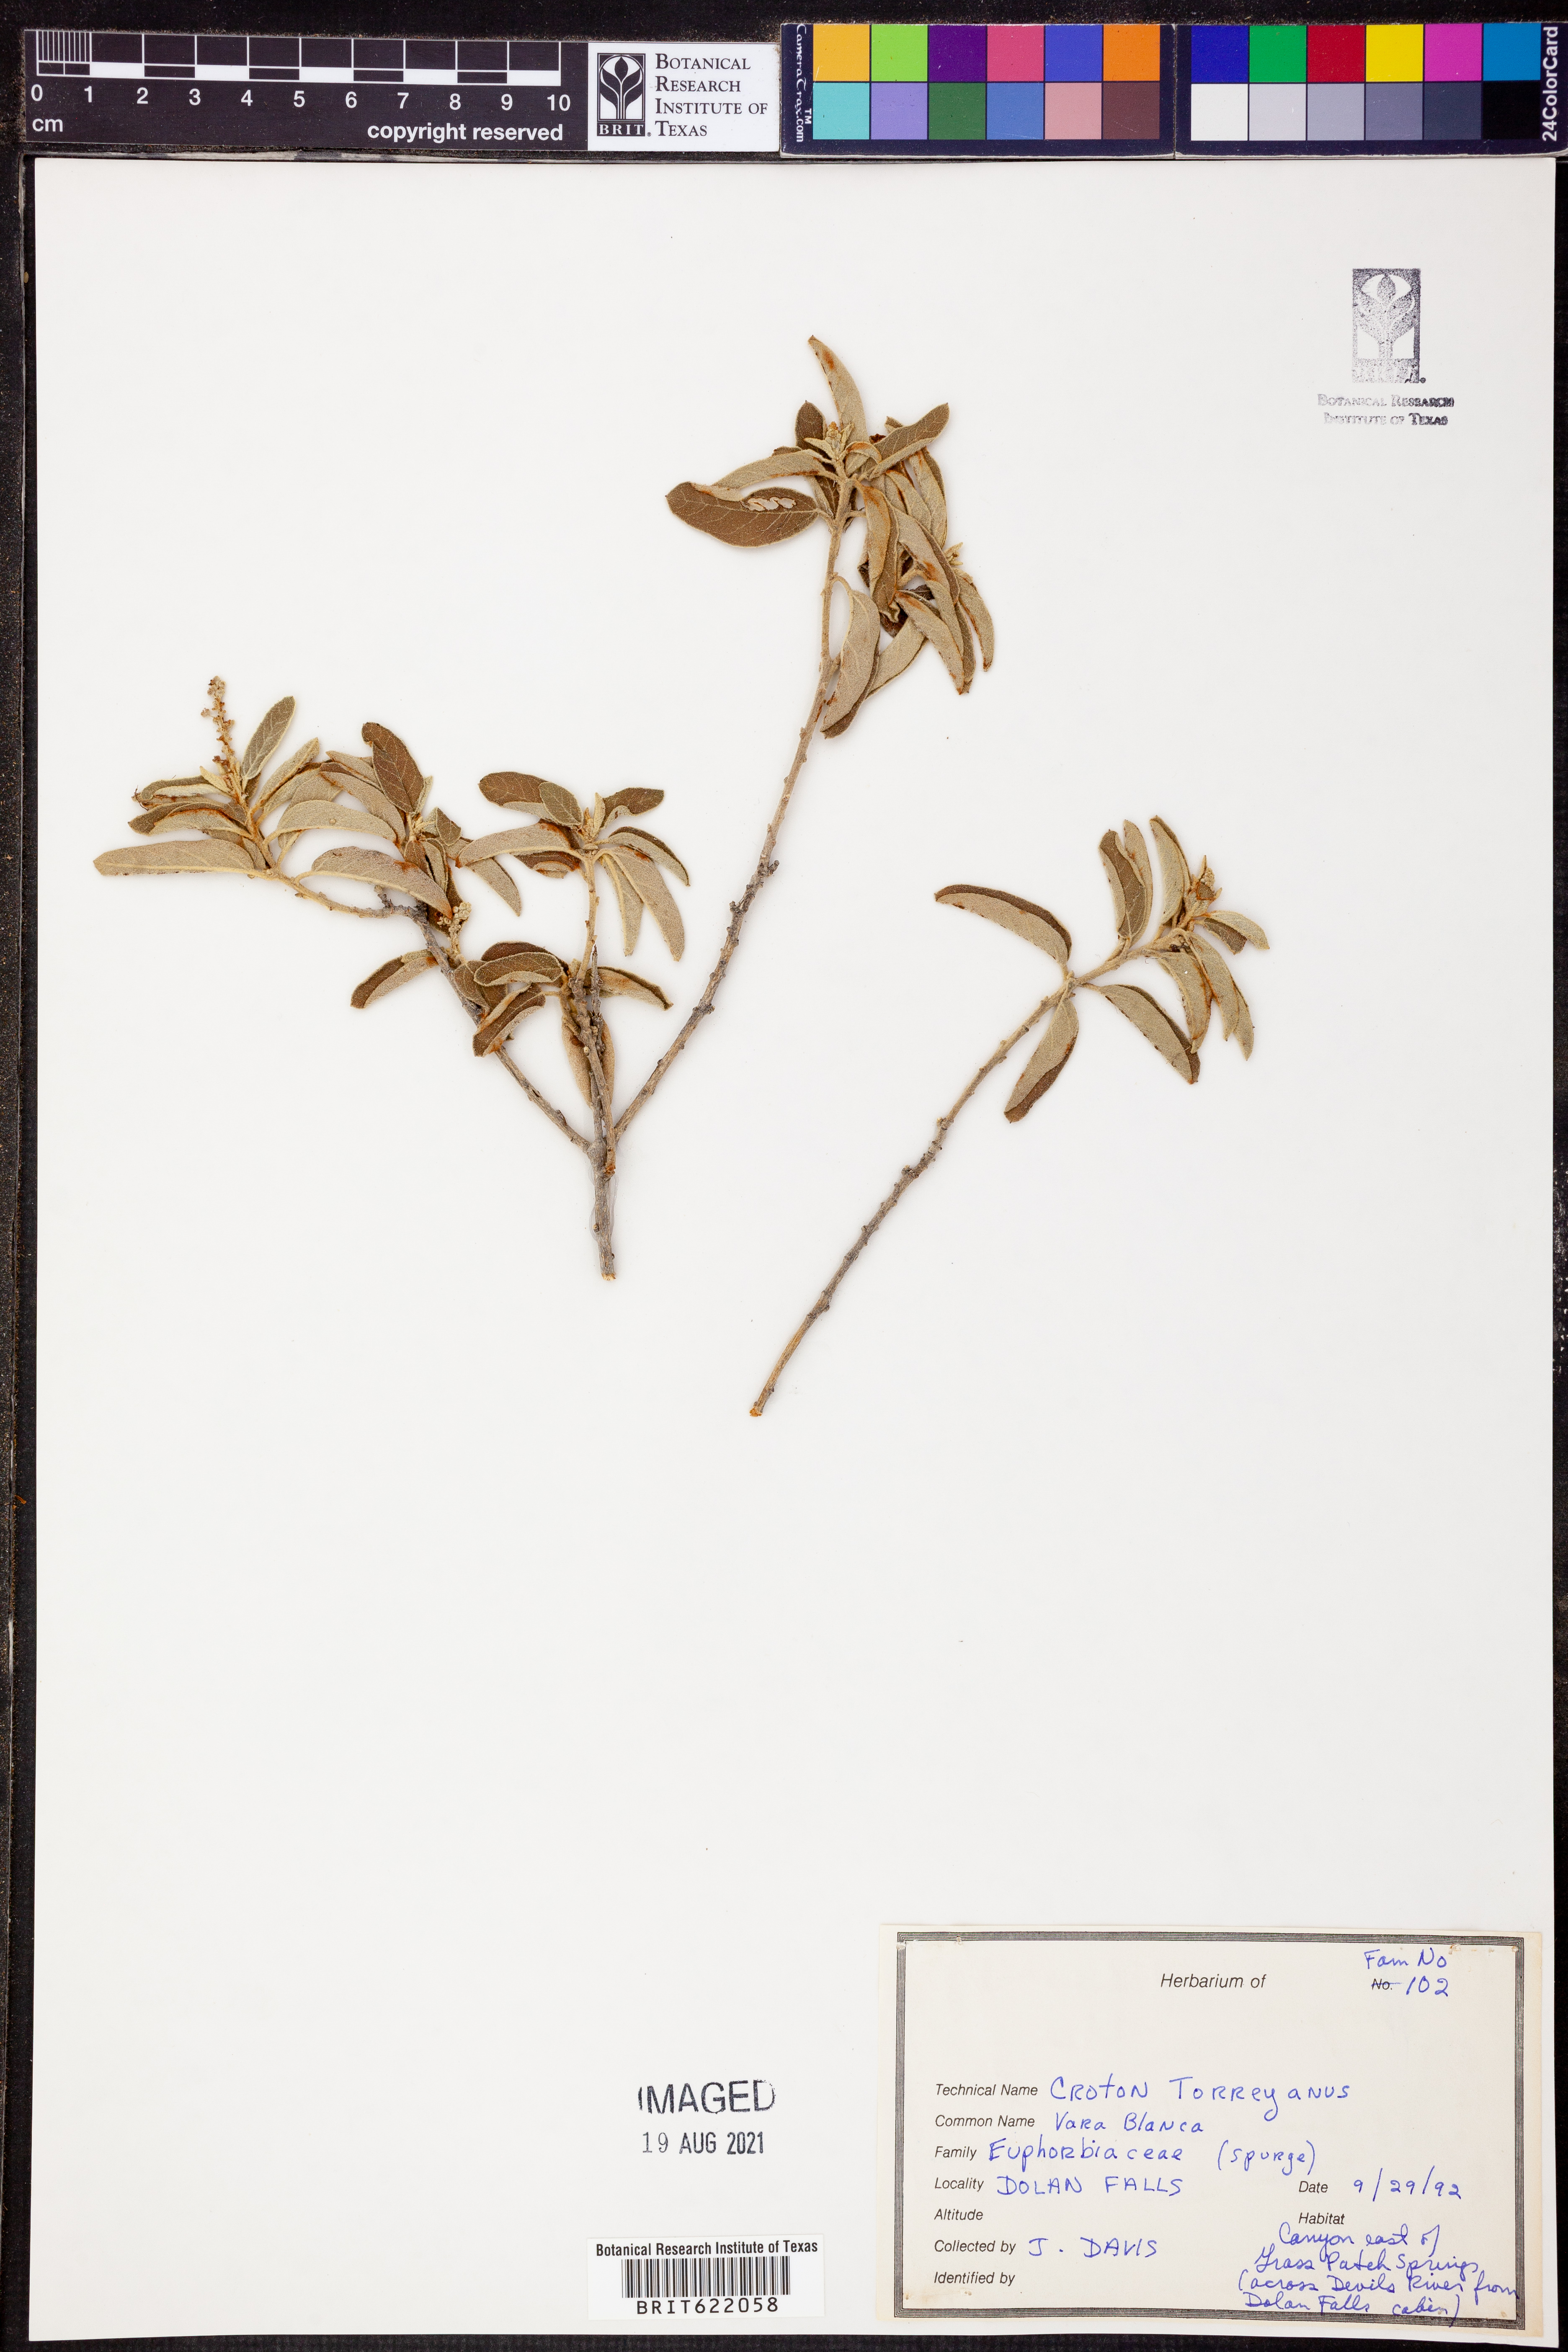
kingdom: Plantae
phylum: Tracheophyta
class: Magnoliopsida
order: Malpighiales
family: Euphorbiaceae
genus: Croton
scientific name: Croton incanus
